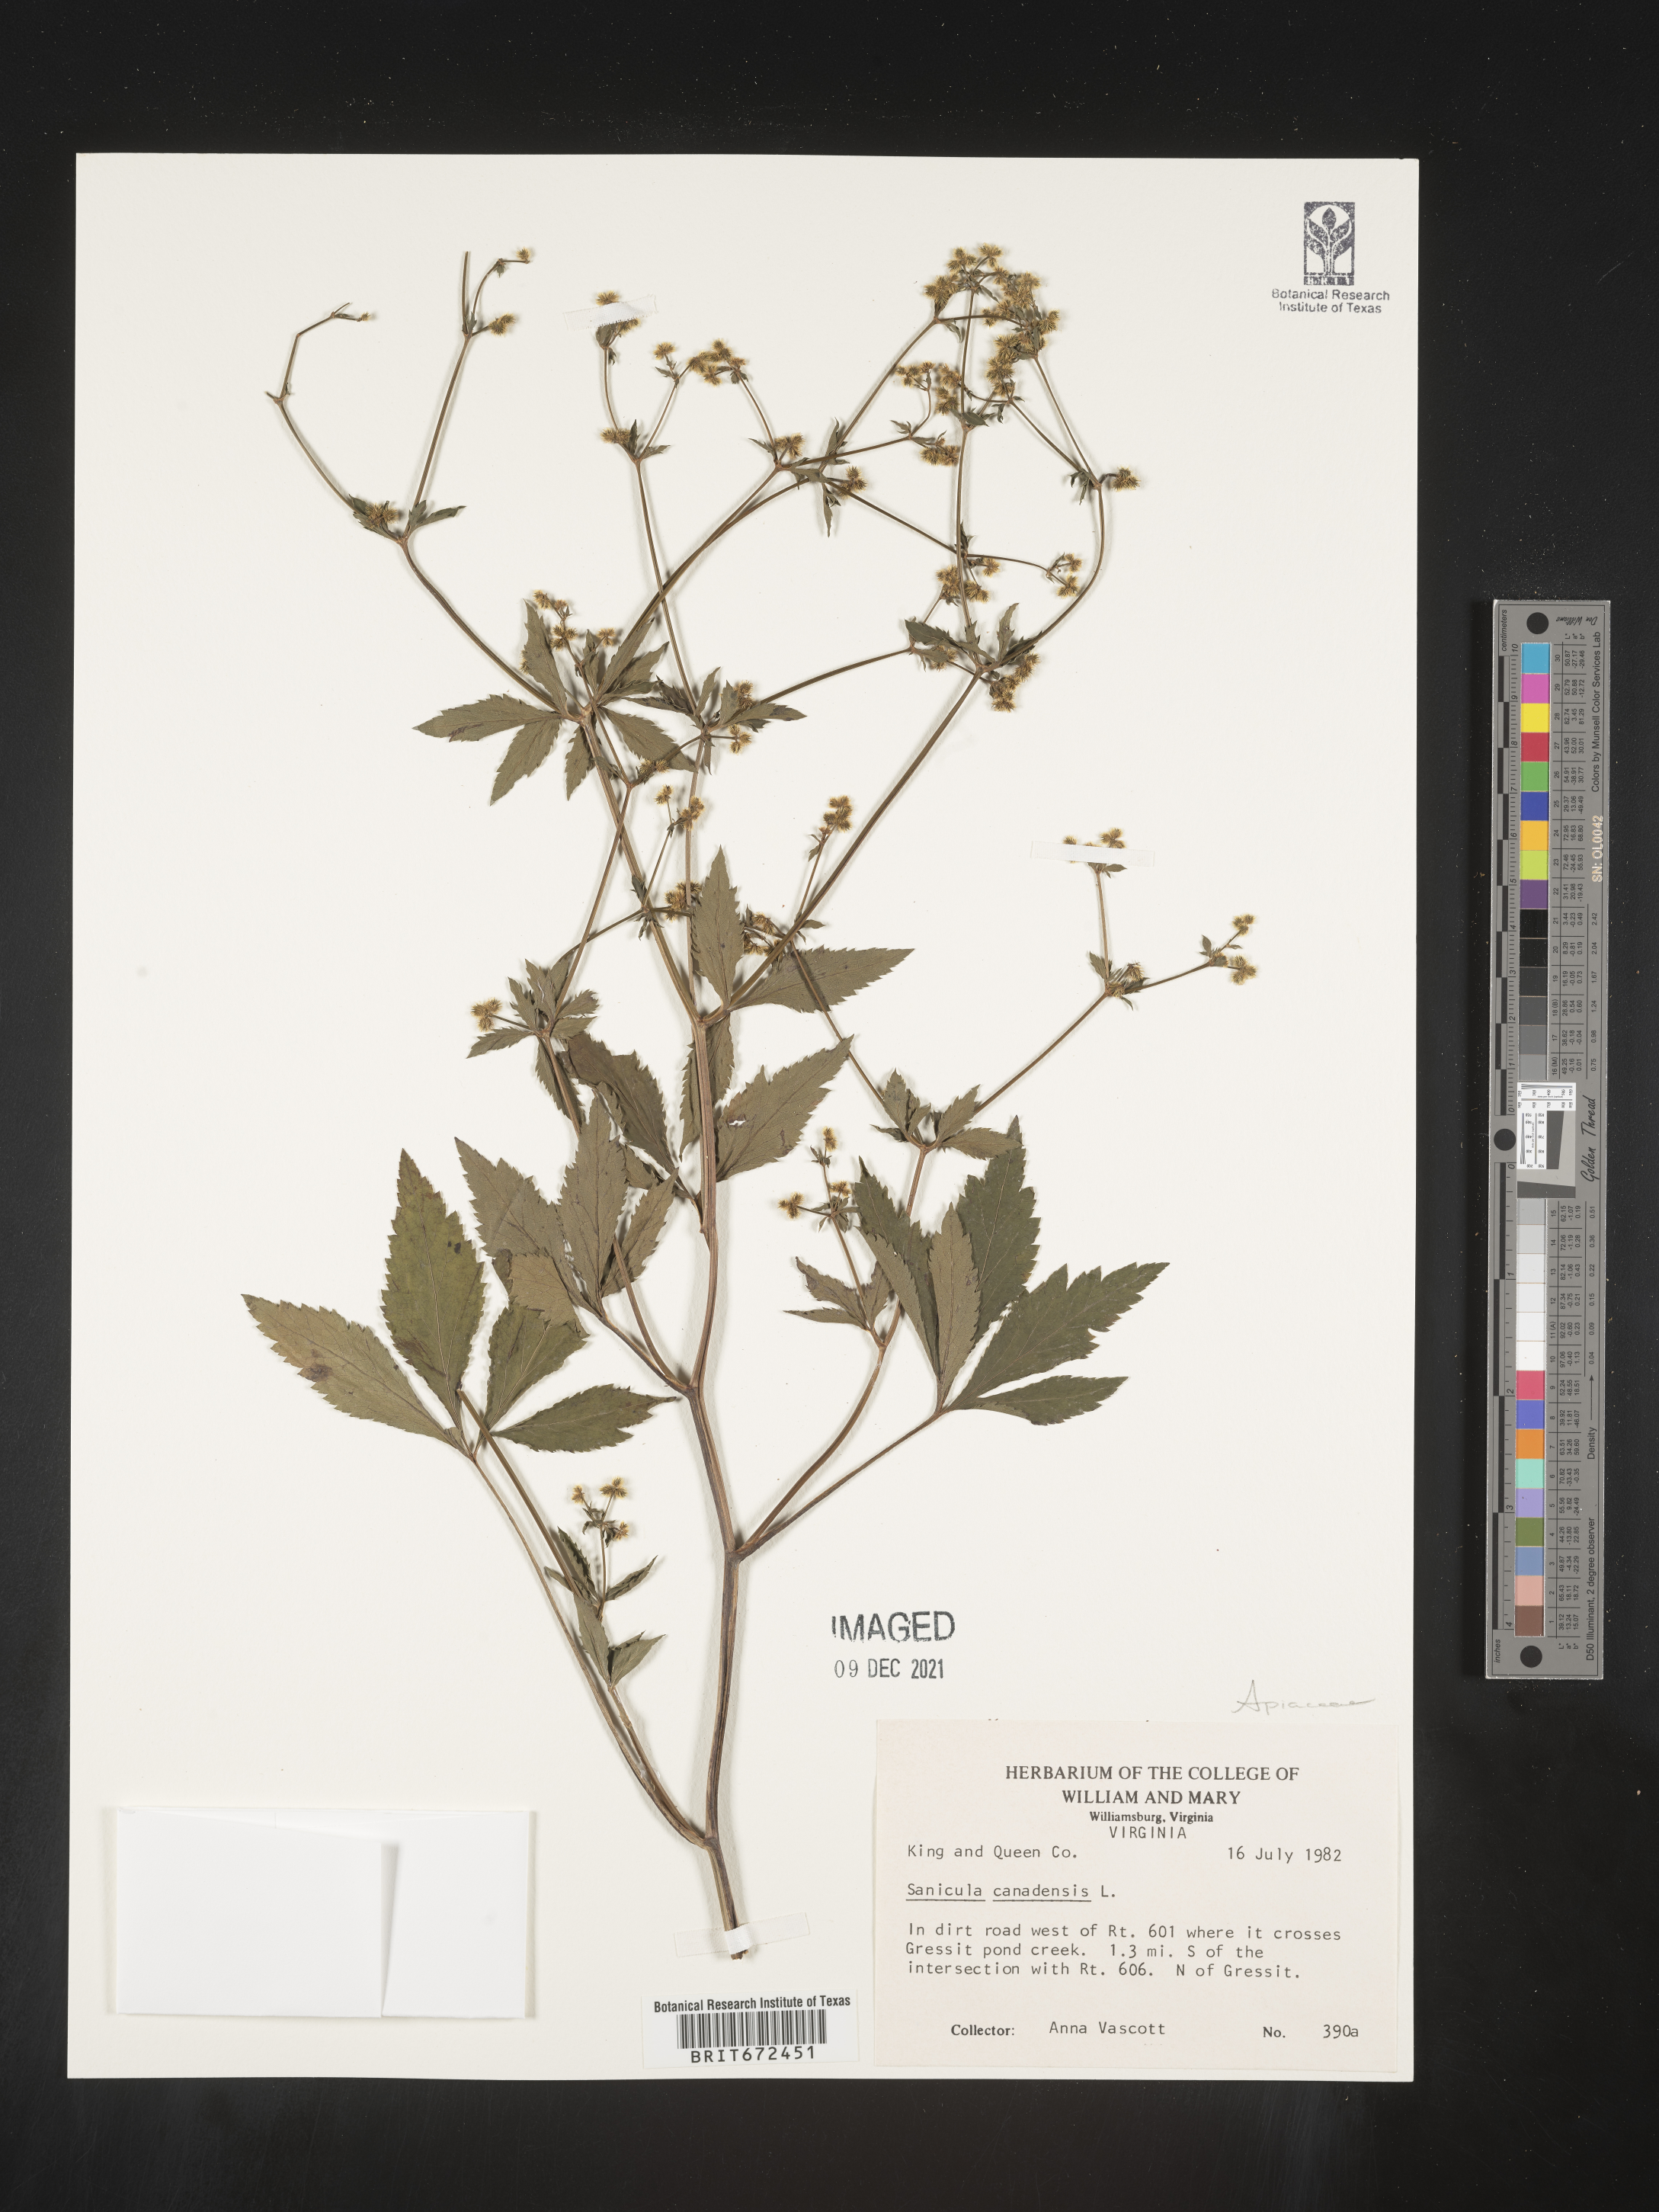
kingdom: Plantae
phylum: Tracheophyta
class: Magnoliopsida
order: Apiales
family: Apiaceae
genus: Sanicula
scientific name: Sanicula canadensis
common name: Canada sanicle
